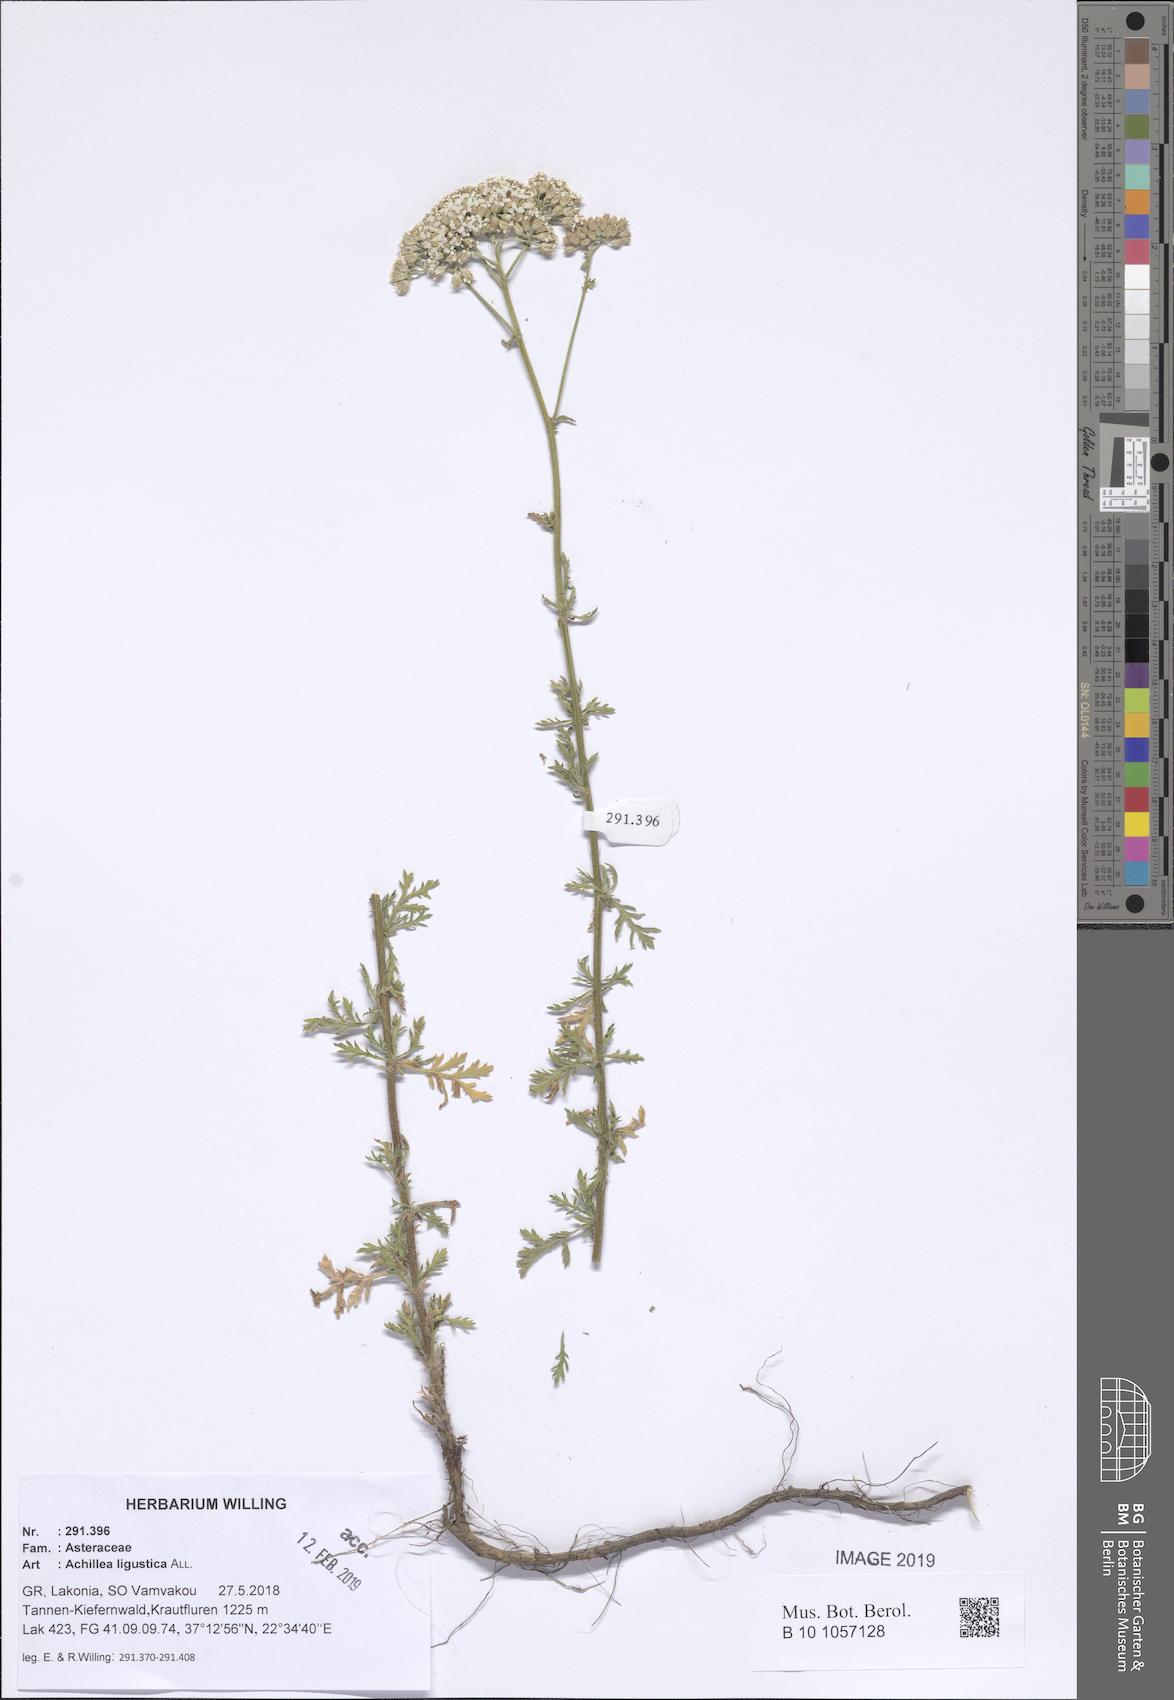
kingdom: Plantae
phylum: Tracheophyta
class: Magnoliopsida
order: Asterales
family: Asteraceae
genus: Achillea
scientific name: Achillea ligustica
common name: Southern yarrow
